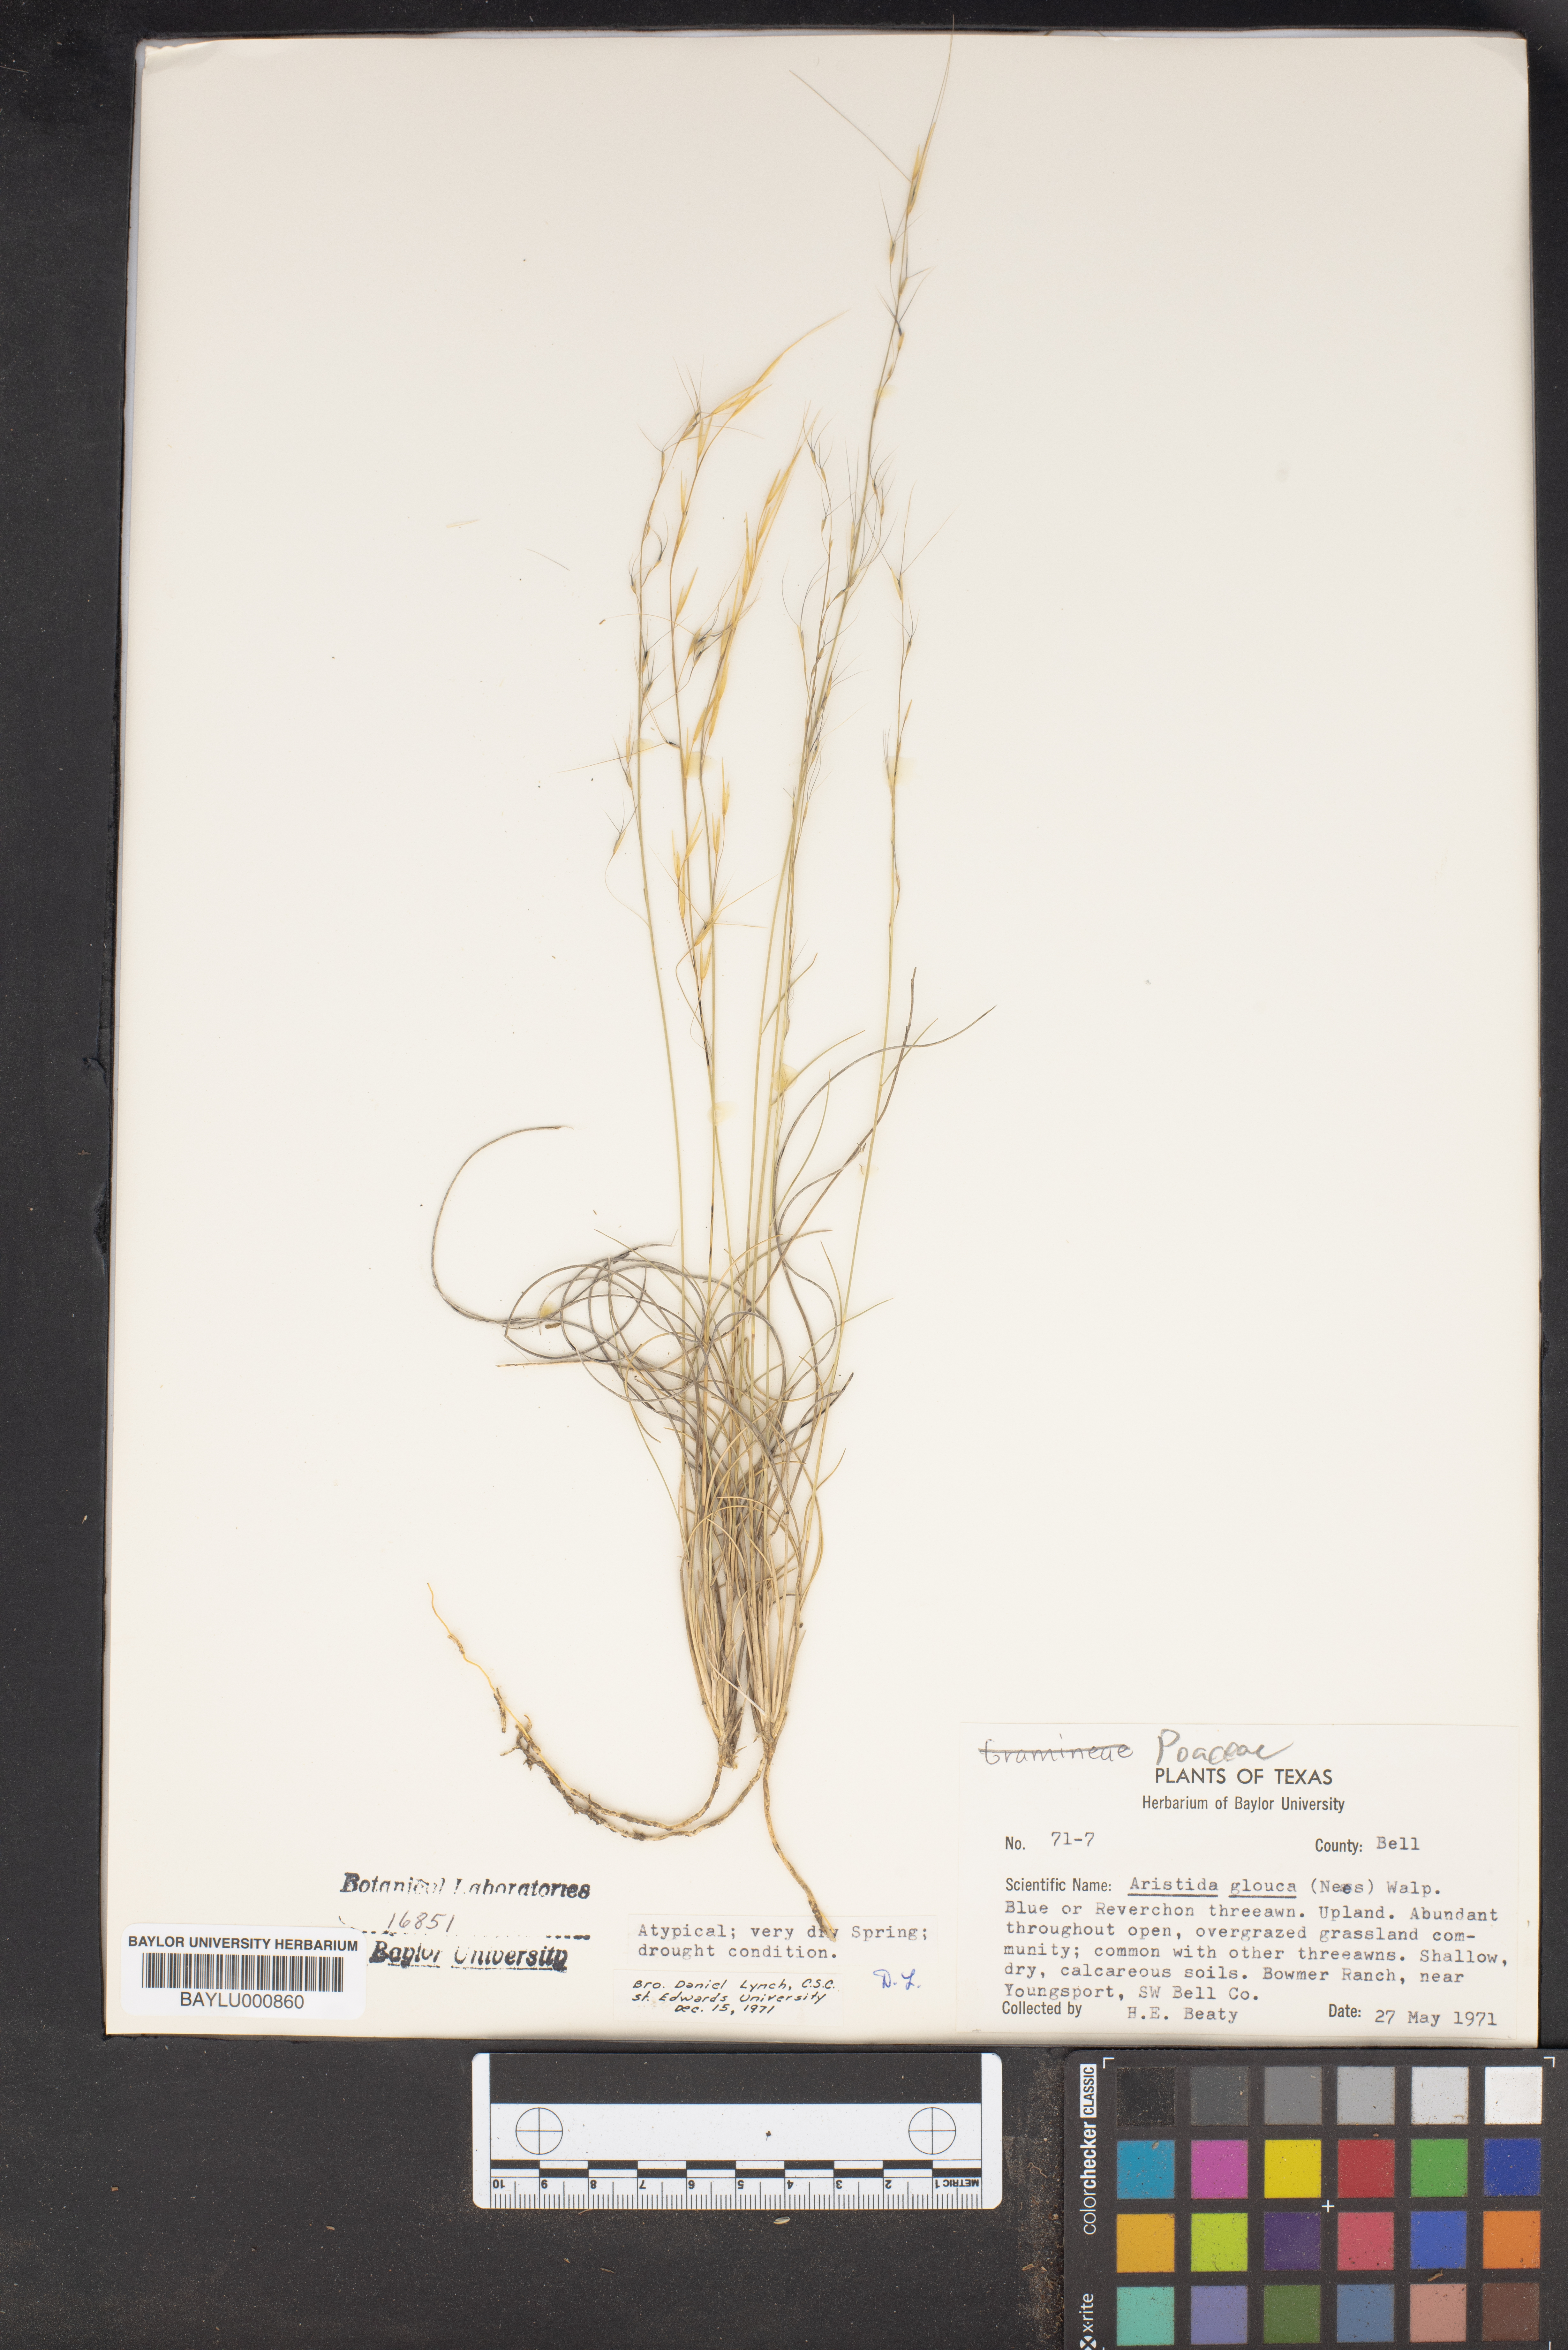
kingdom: Plantae
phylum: Tracheophyta
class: Liliopsida
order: Poales
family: Poaceae
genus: Aristida
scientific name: Aristida glauca
